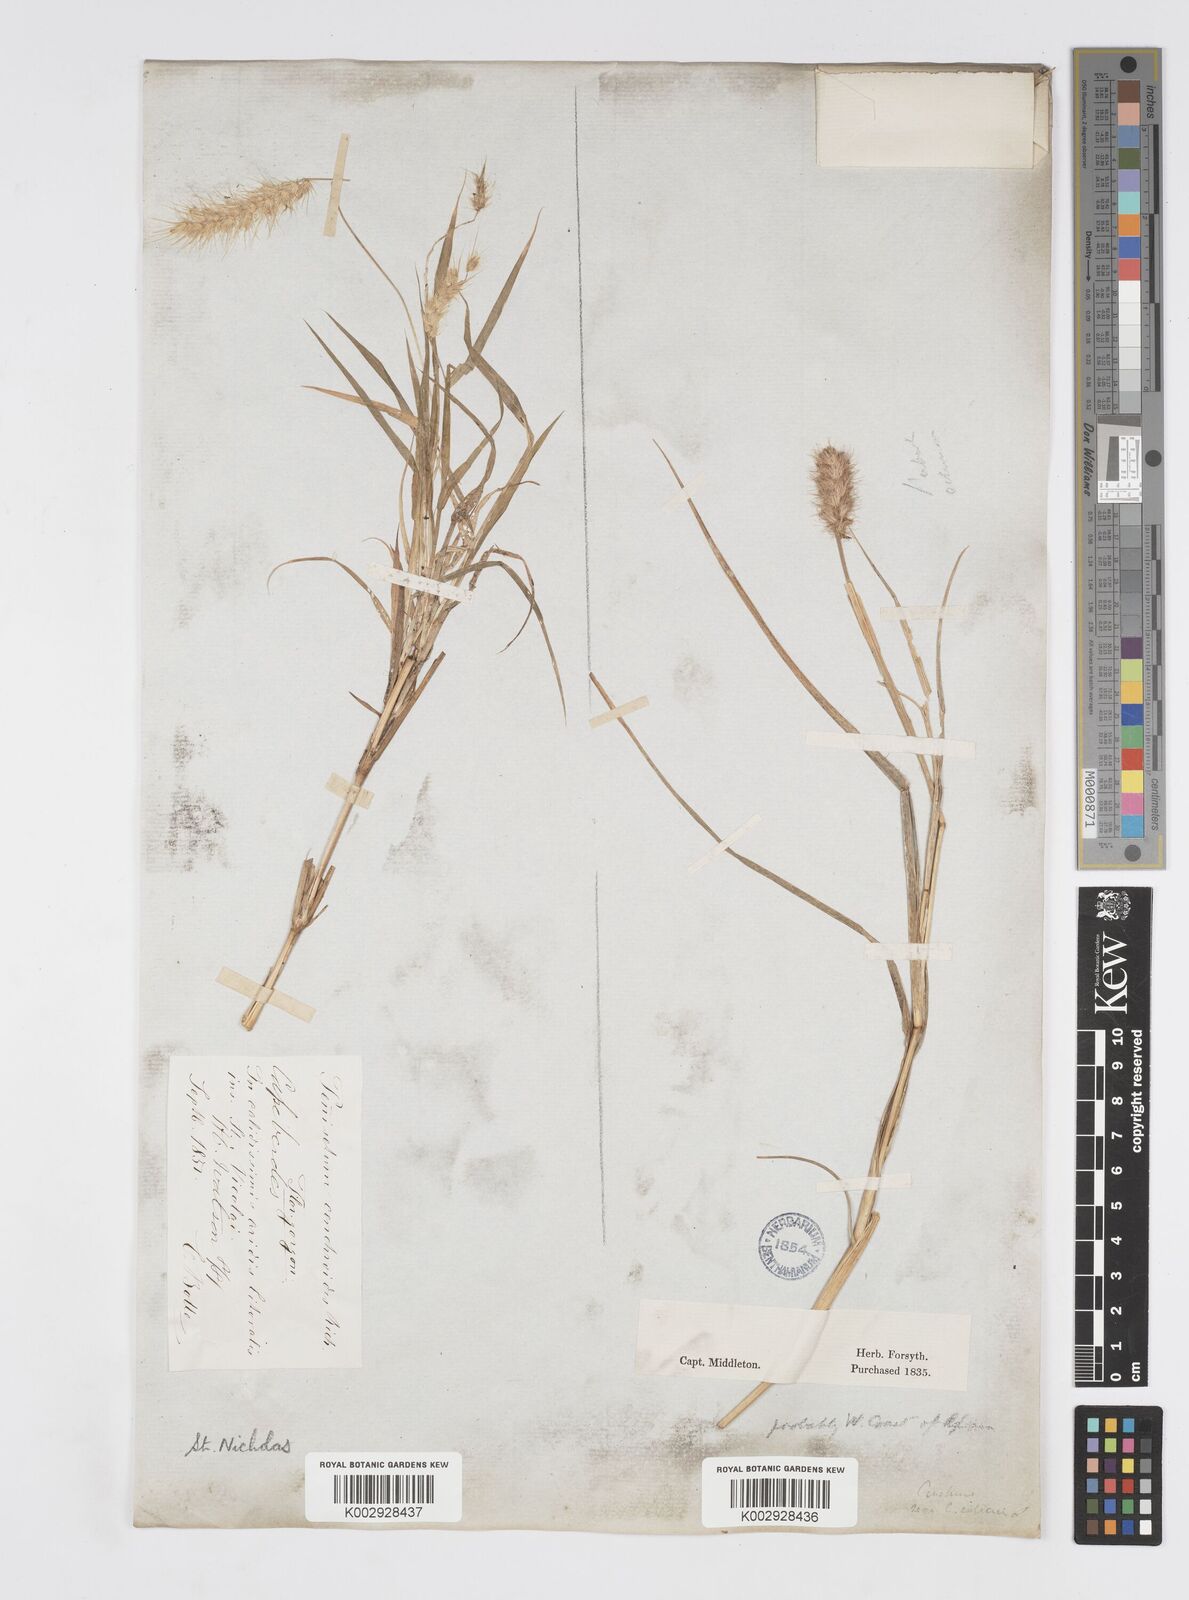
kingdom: Plantae
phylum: Tracheophyta
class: Liliopsida
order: Poales
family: Poaceae
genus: Cenchrus
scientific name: Cenchrus ciliaris
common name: Buffelgrass
